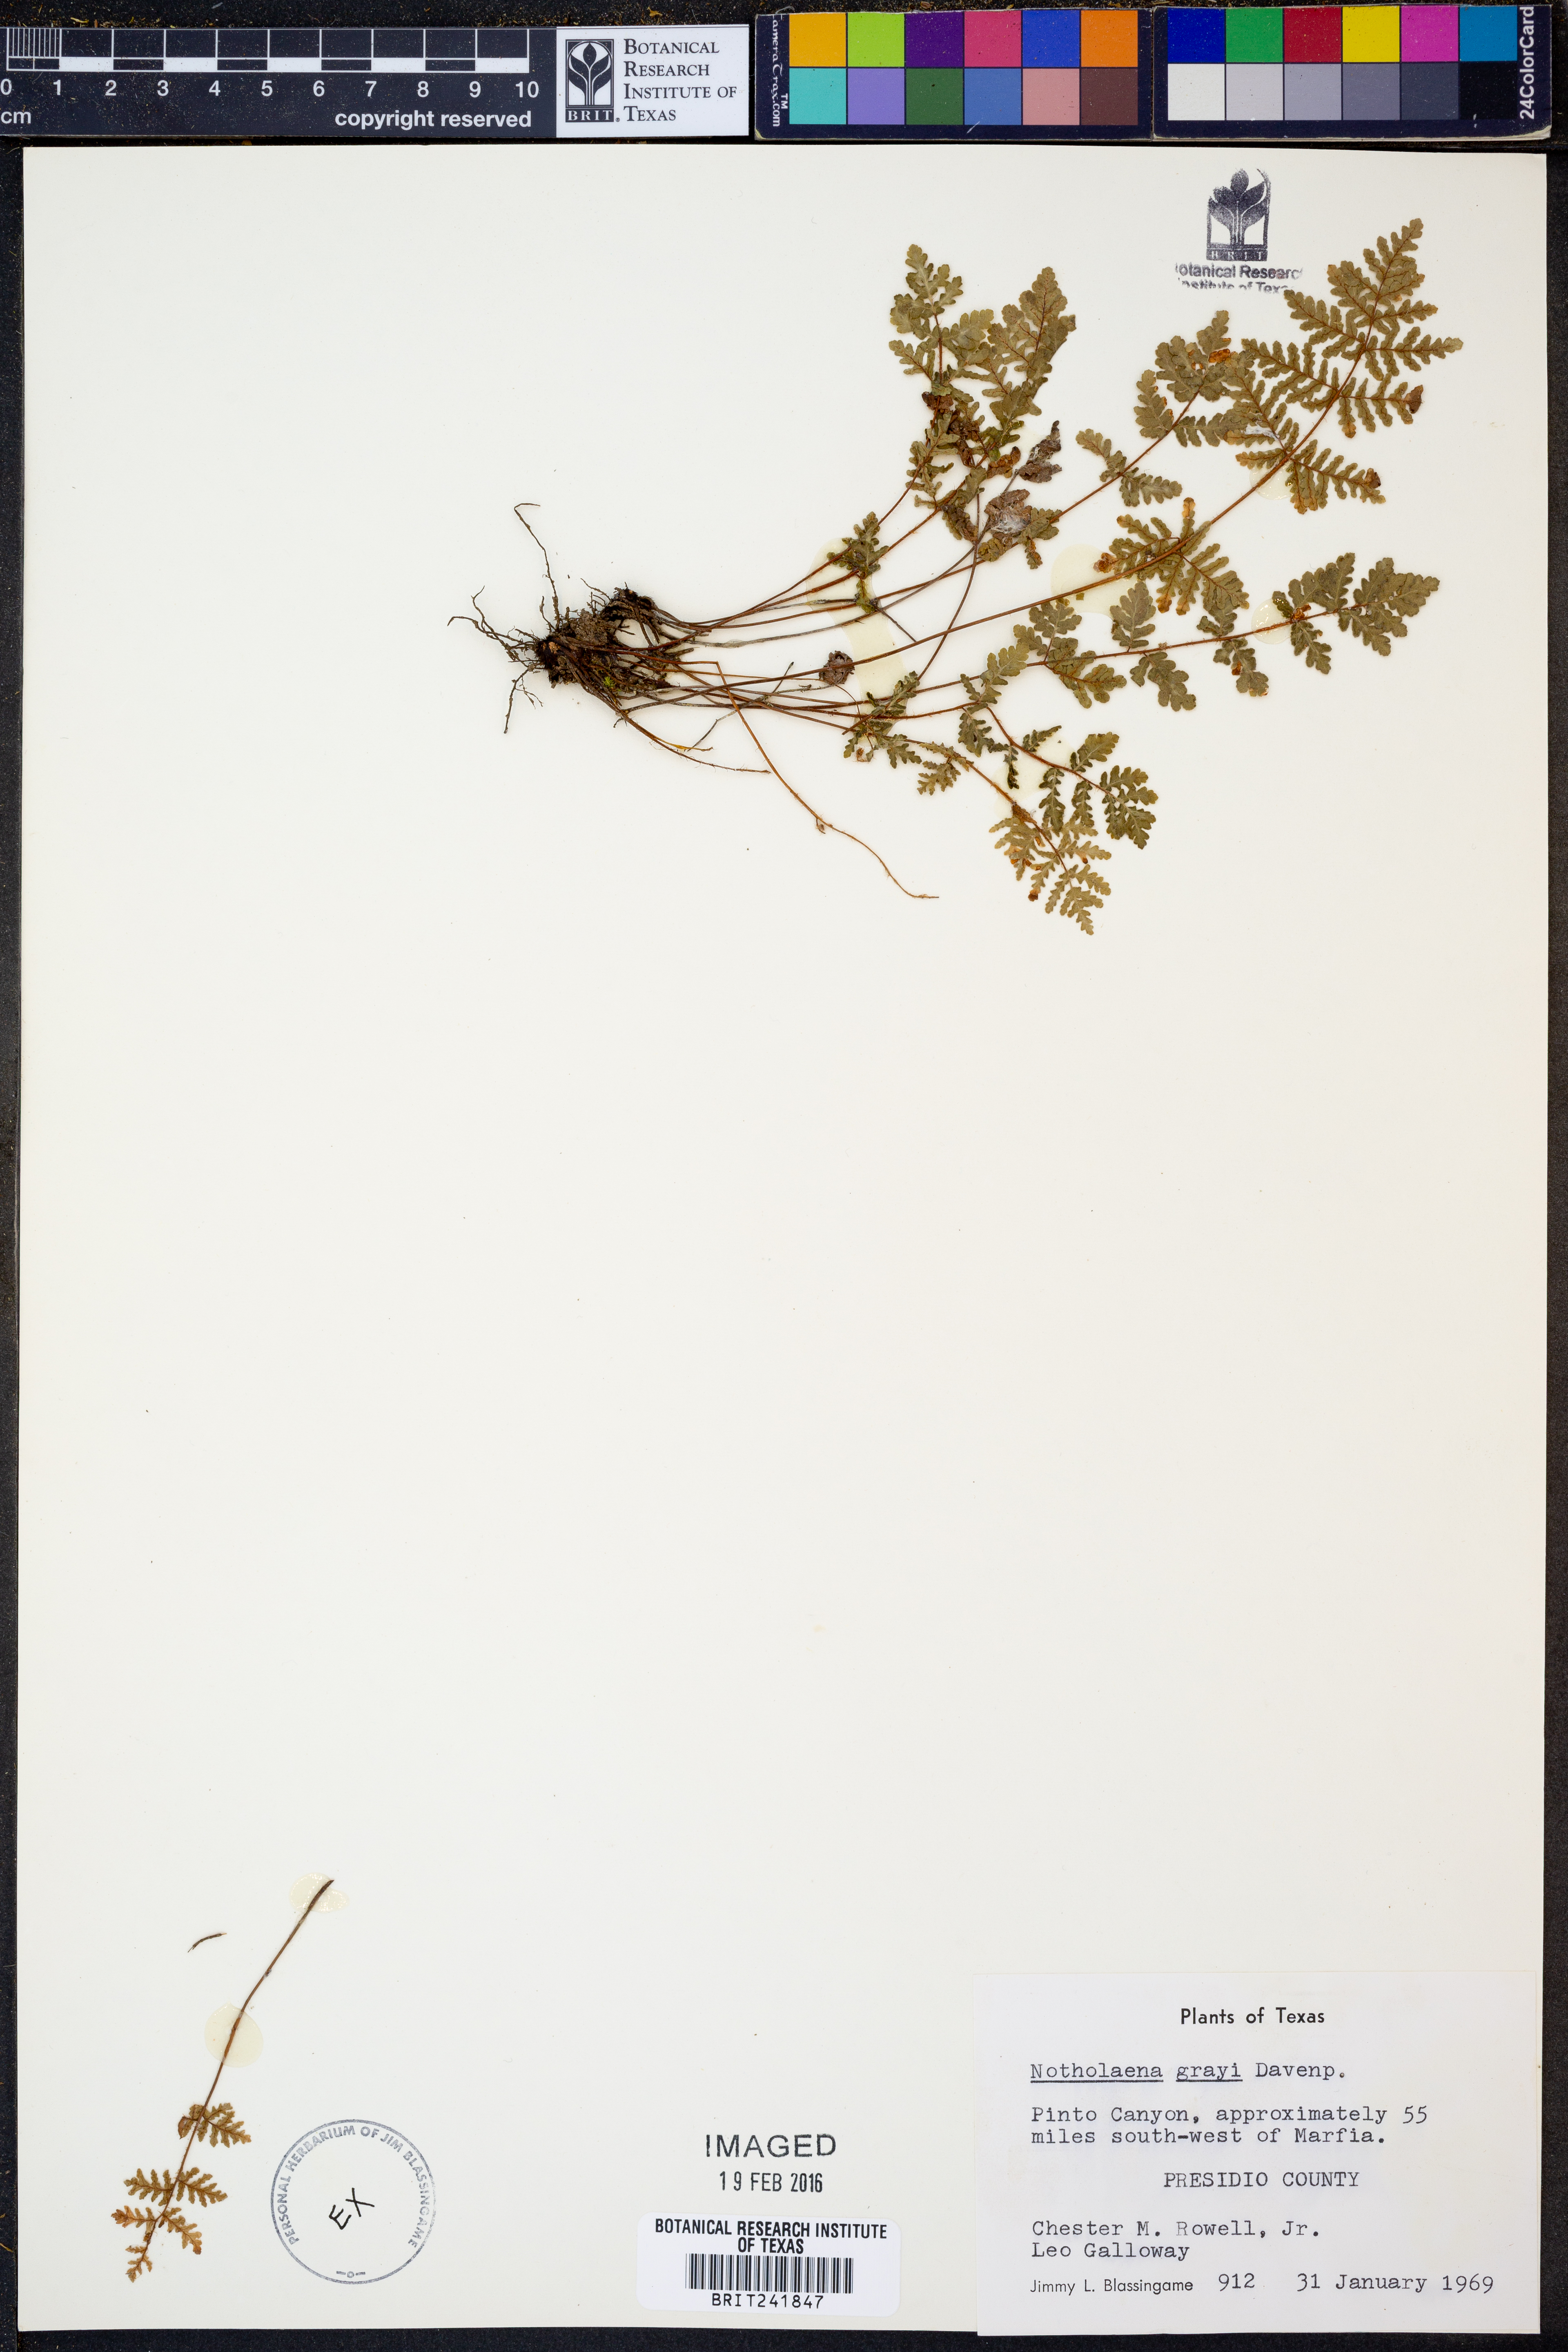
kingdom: Plantae
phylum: Tracheophyta
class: Polypodiopsida
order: Polypodiales
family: Pteridaceae
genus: Notholaena
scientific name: Notholaena grayi
